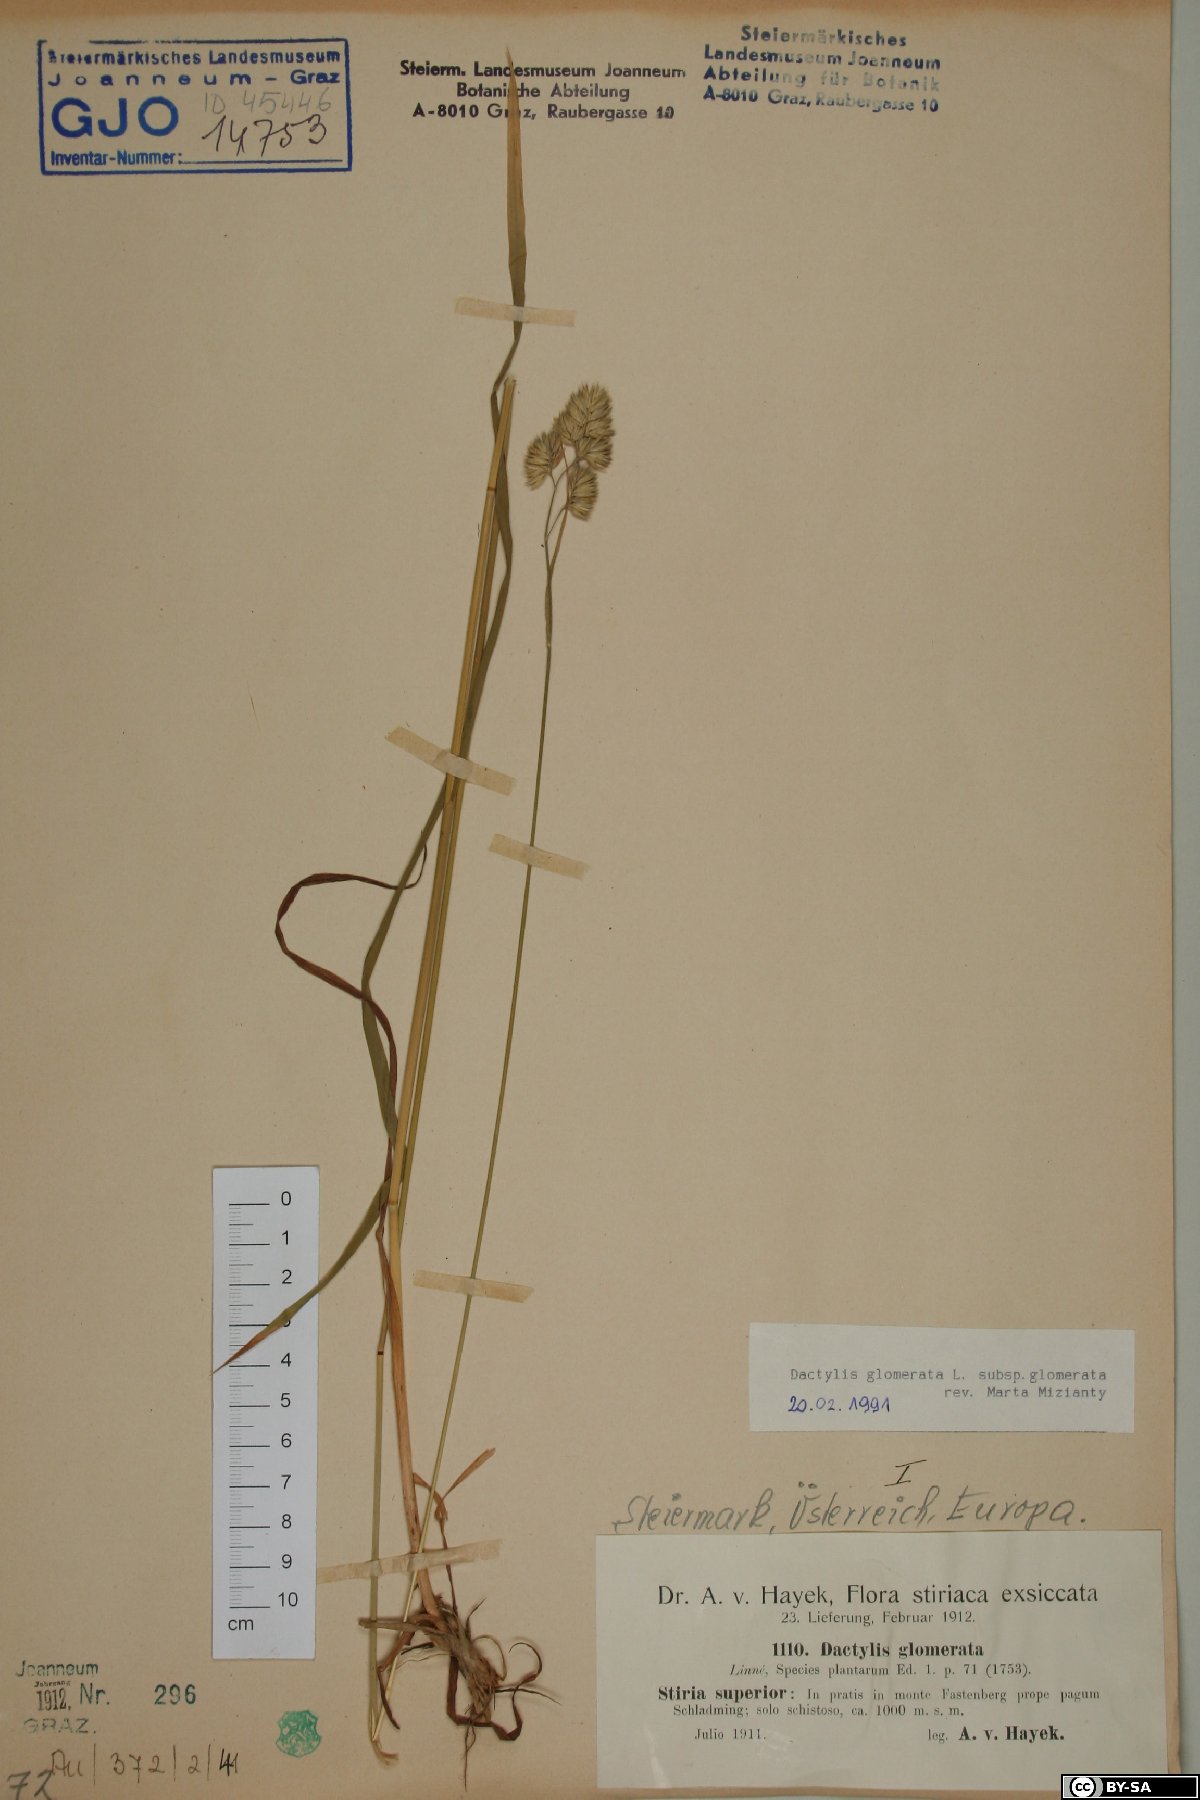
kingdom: Plantae
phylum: Tracheophyta
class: Liliopsida
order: Poales
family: Poaceae
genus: Dactylis
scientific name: Dactylis glomerata
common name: Orchardgrass
